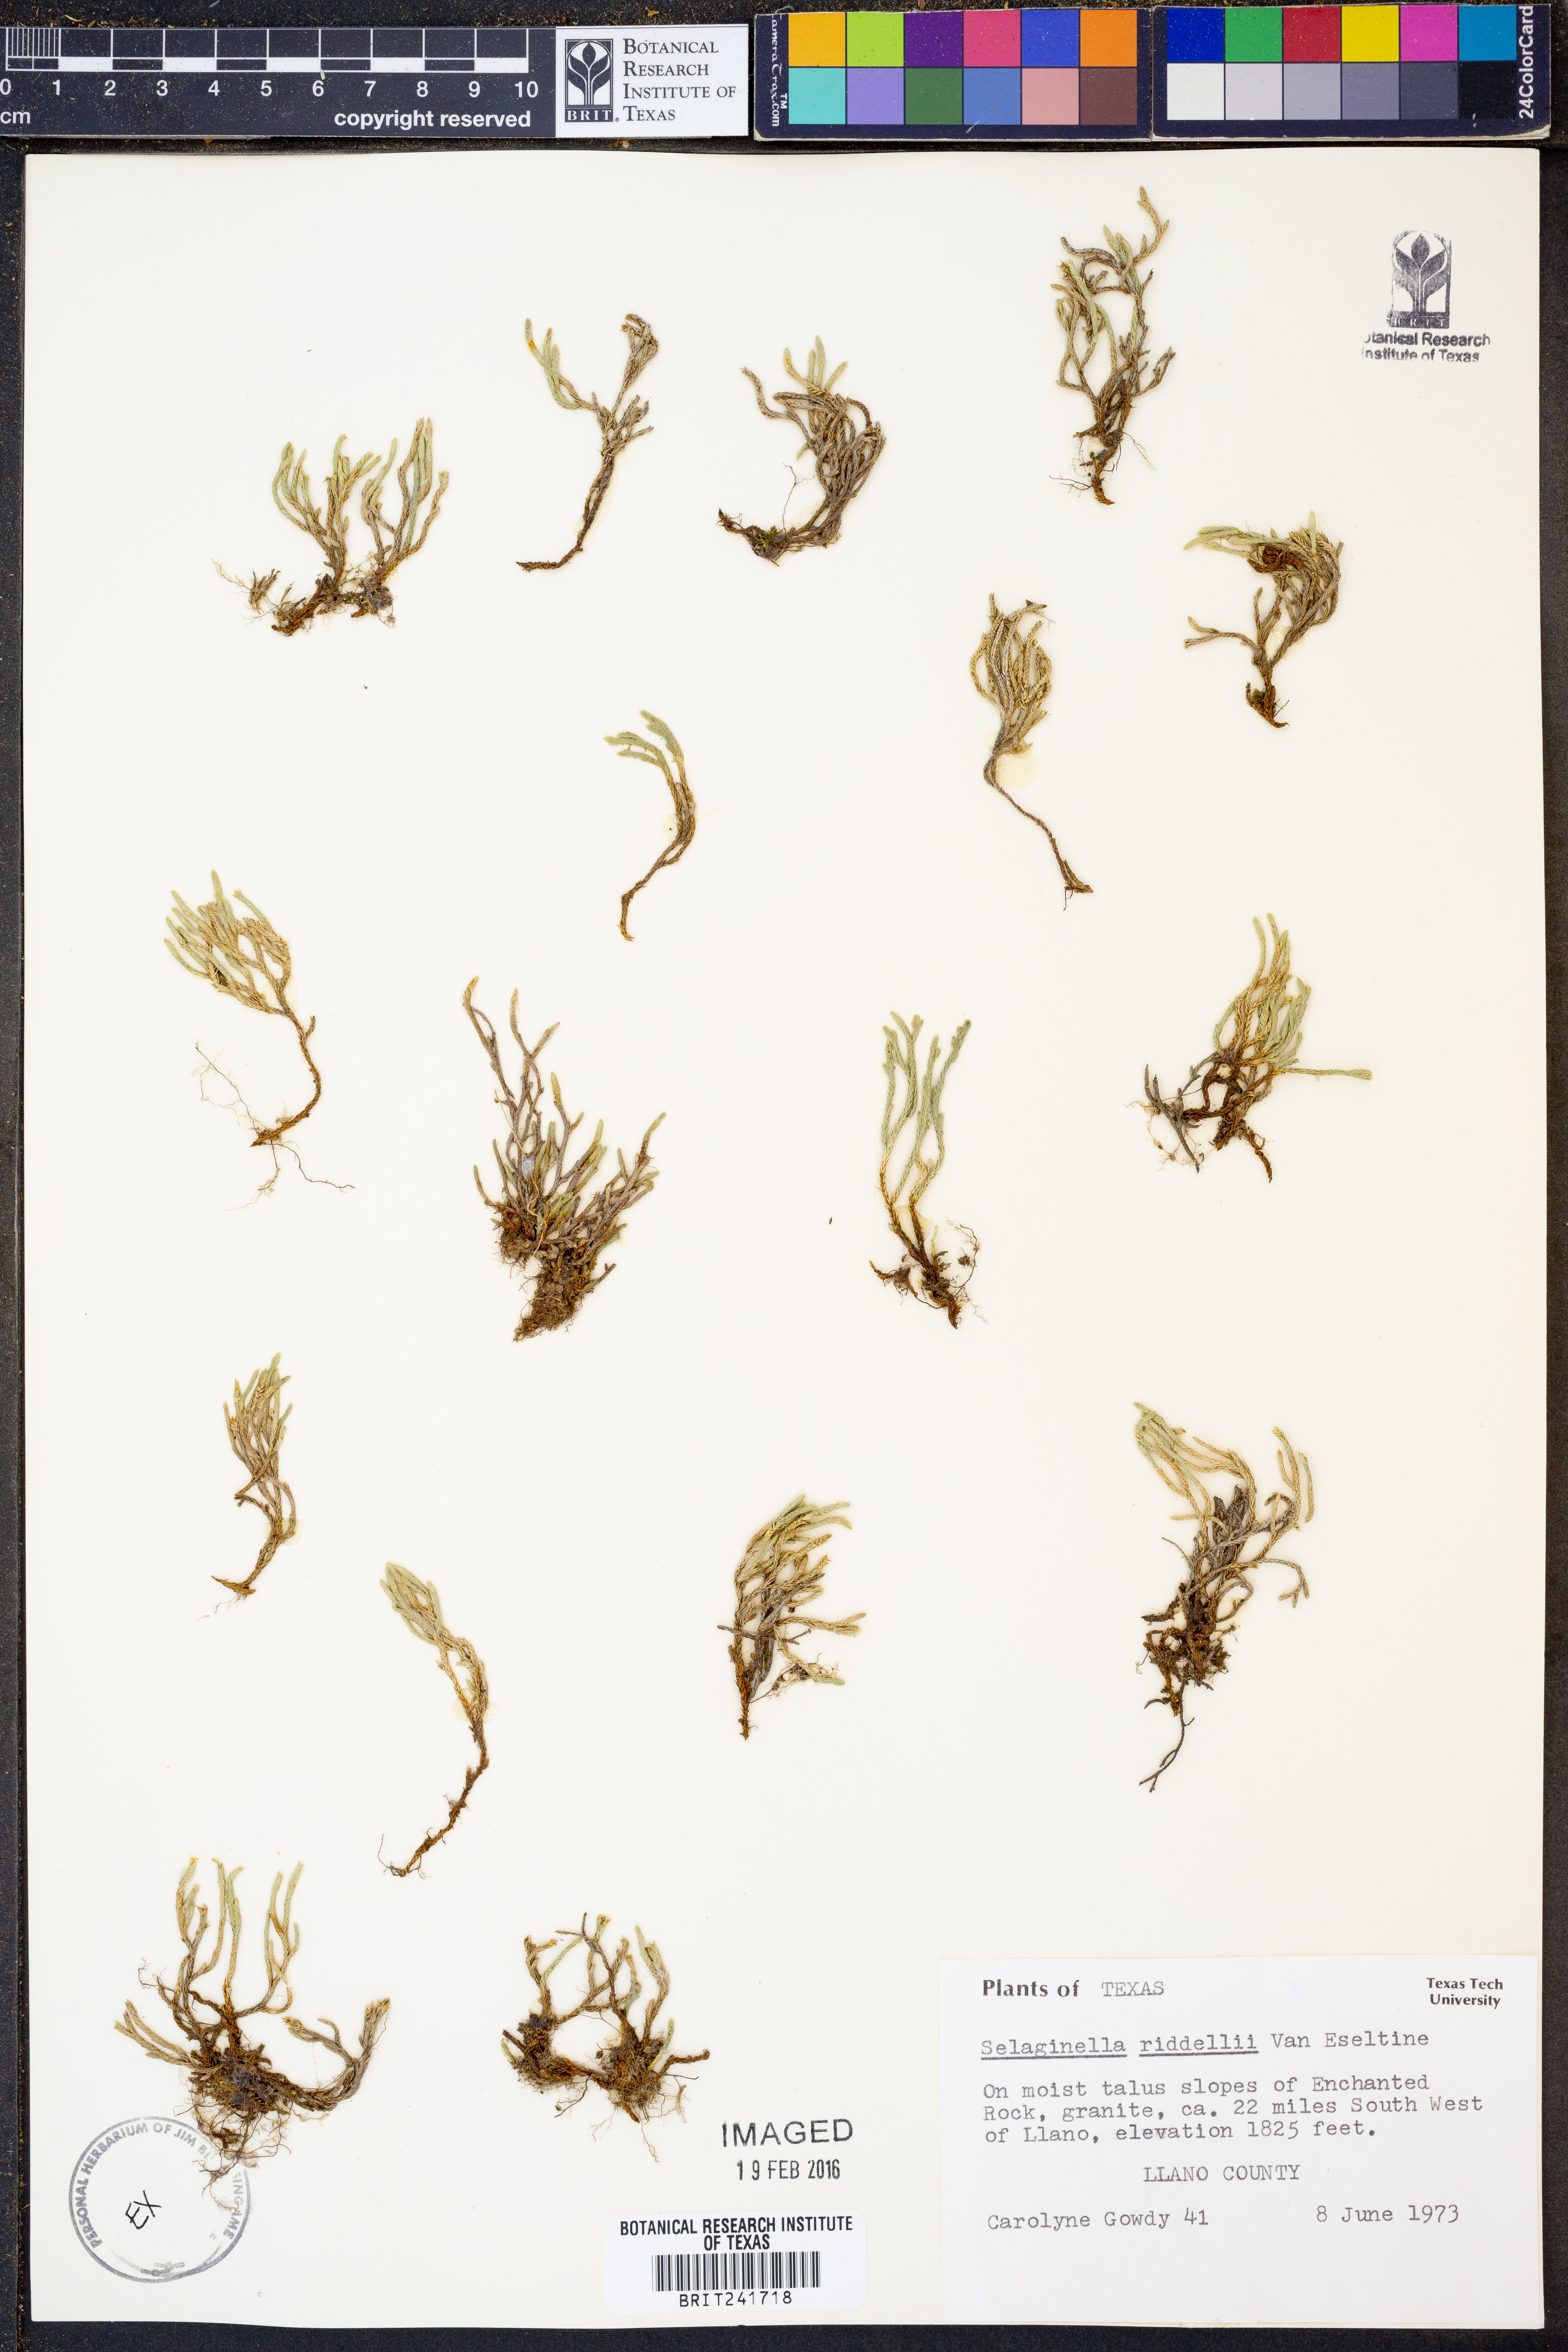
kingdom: Plantae
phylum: Tracheophyta
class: Lycopodiopsida
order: Selaginellales
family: Selaginellaceae
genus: Selaginella
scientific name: Selaginella corallina
